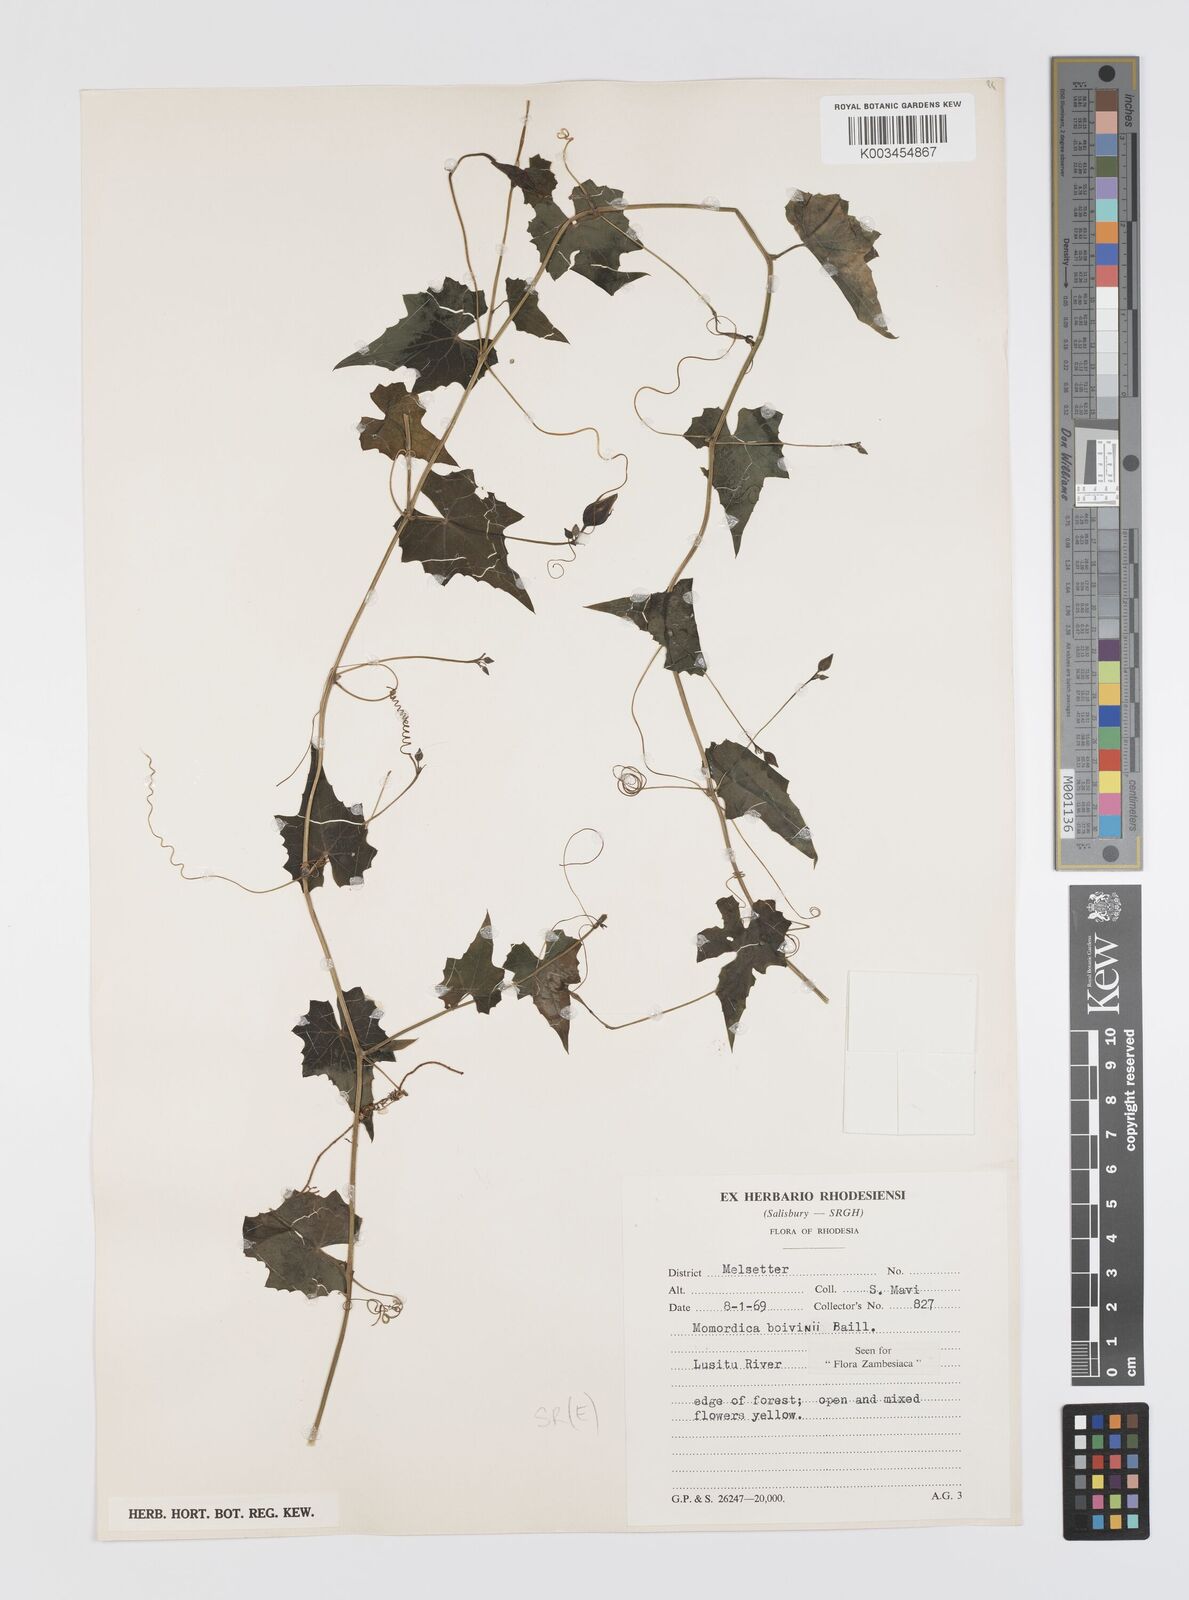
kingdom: Plantae
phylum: Tracheophyta
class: Magnoliopsida
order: Cucurbitales
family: Cucurbitaceae
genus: Momordica
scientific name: Momordica boivinii
